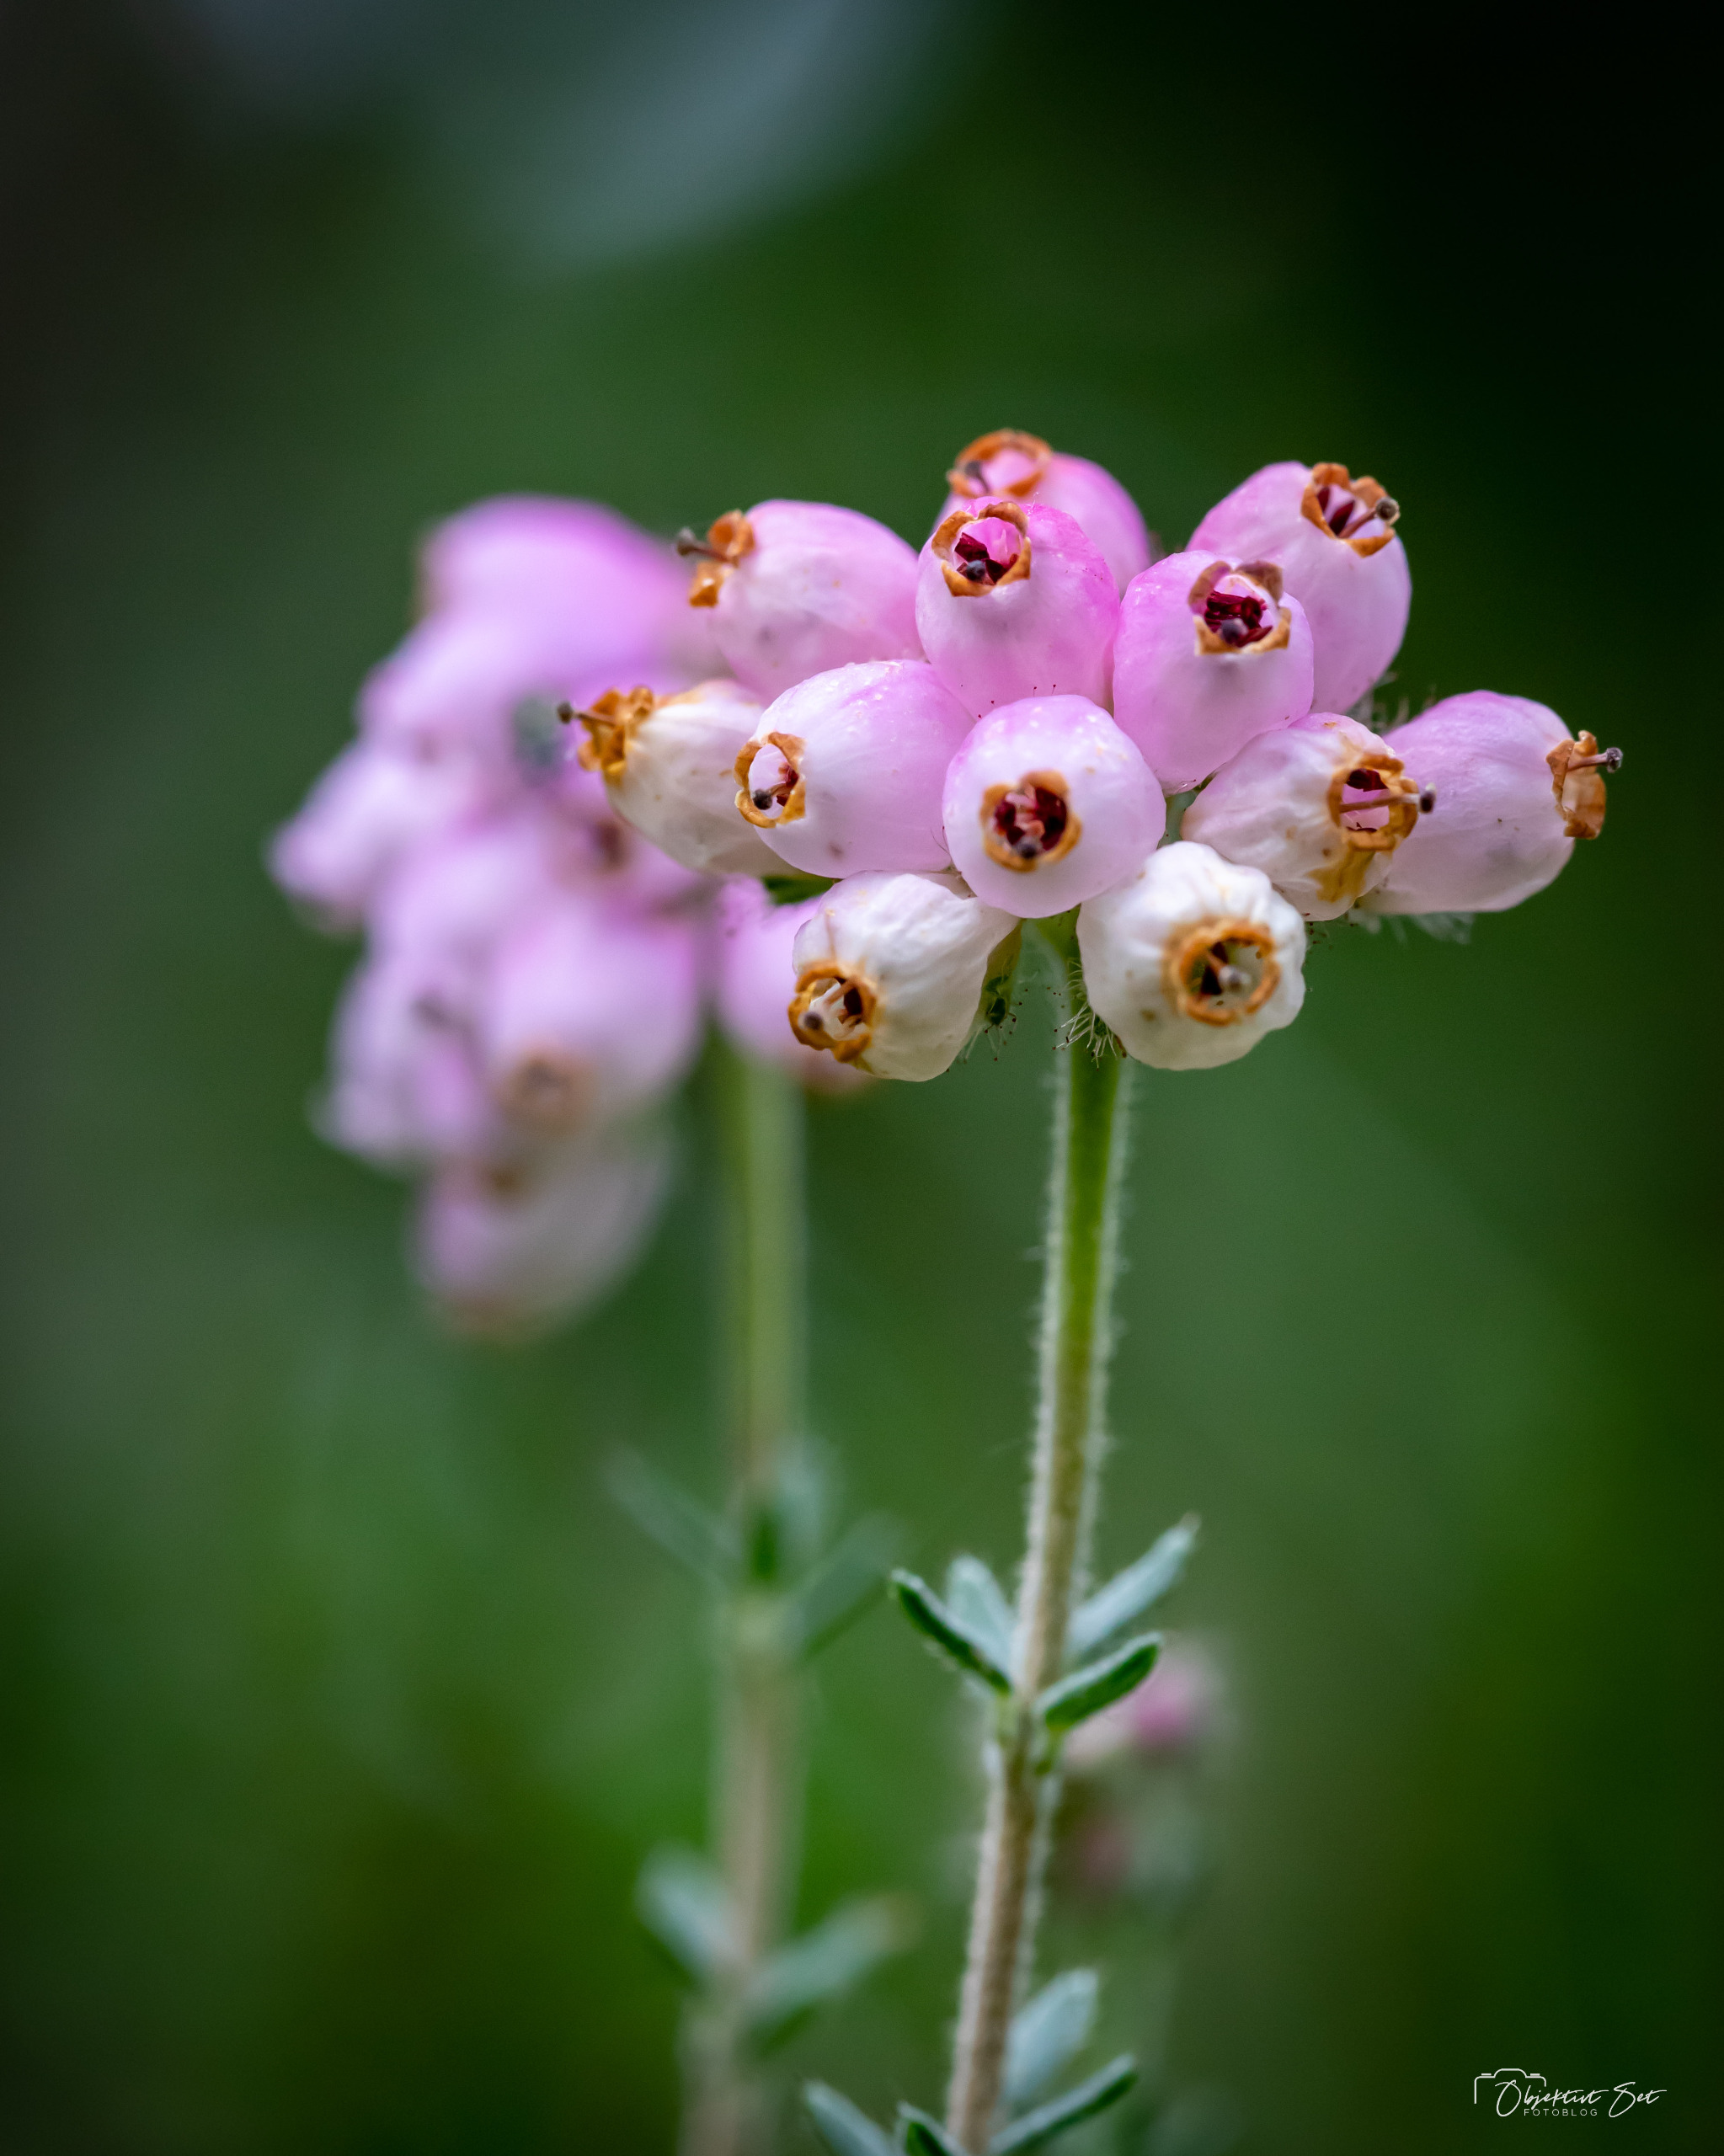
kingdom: Plantae
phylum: Tracheophyta
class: Magnoliopsida
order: Ericales
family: Ericaceae
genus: Erica
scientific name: Erica tetralix
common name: Klokkelyng
